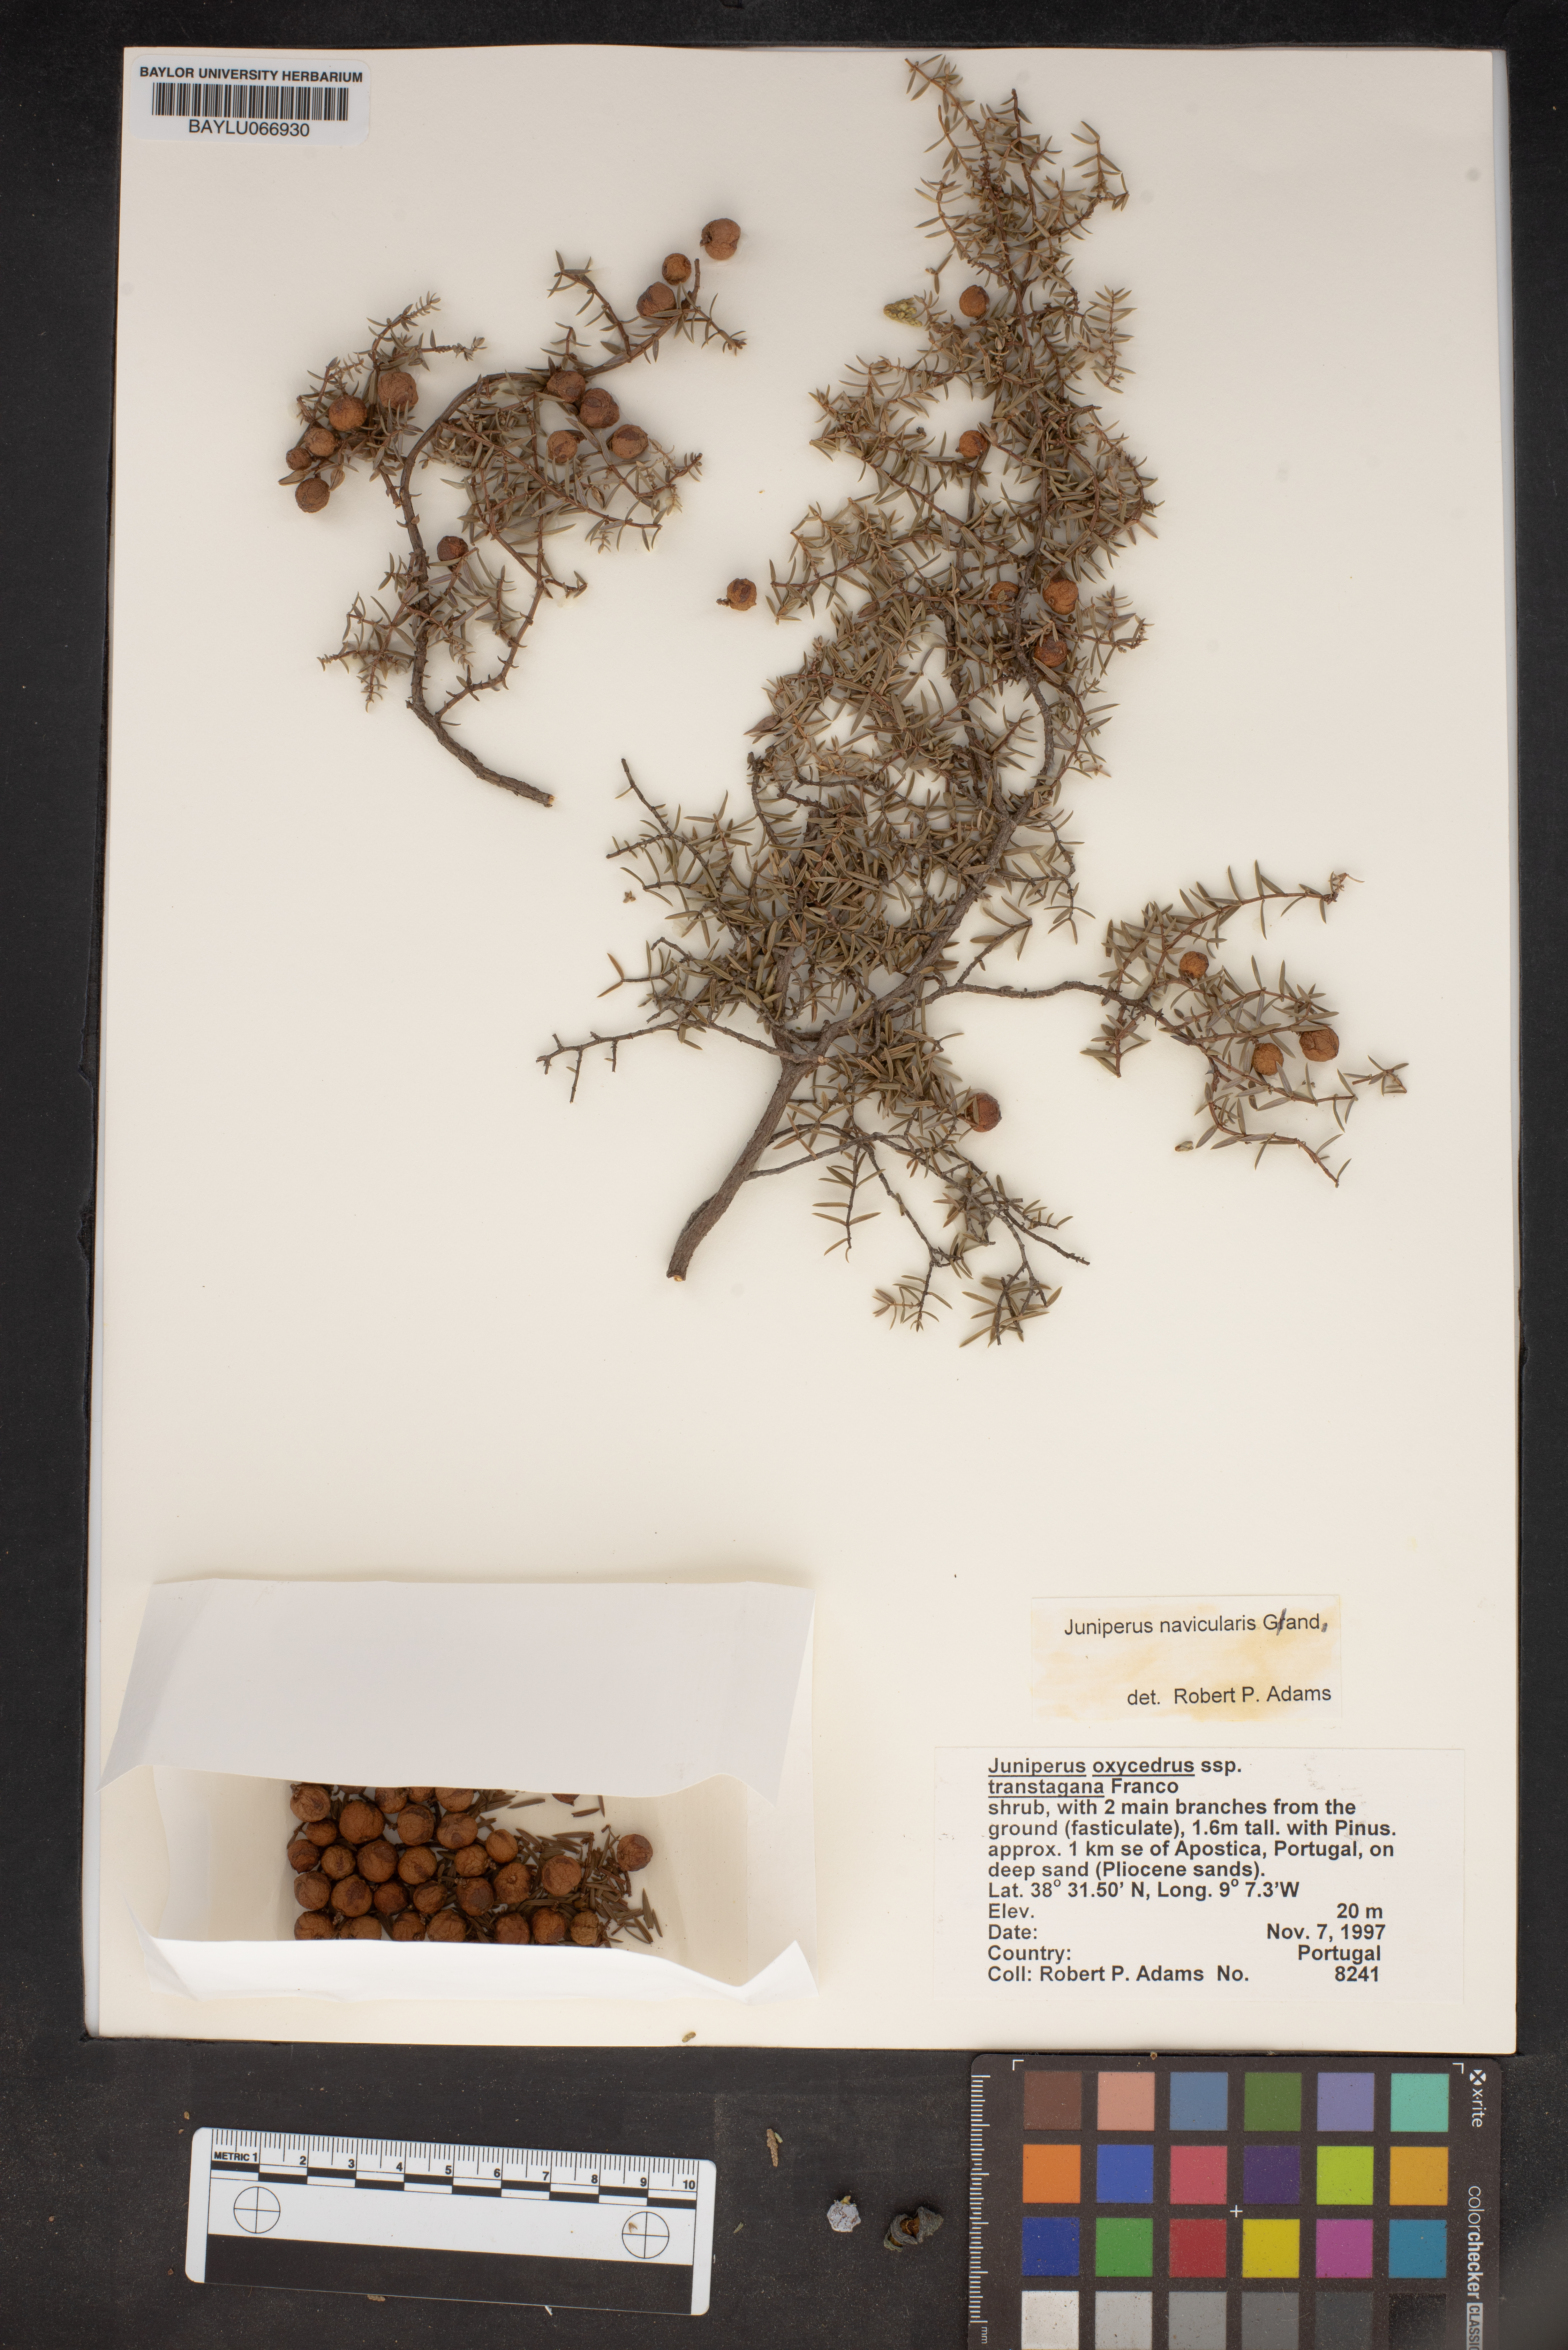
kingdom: Plantae
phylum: Tracheophyta
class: Pinopsida
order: Pinales
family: Cupressaceae
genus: Juniperus
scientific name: Juniperus oxycedrus
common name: Prickly juniper
